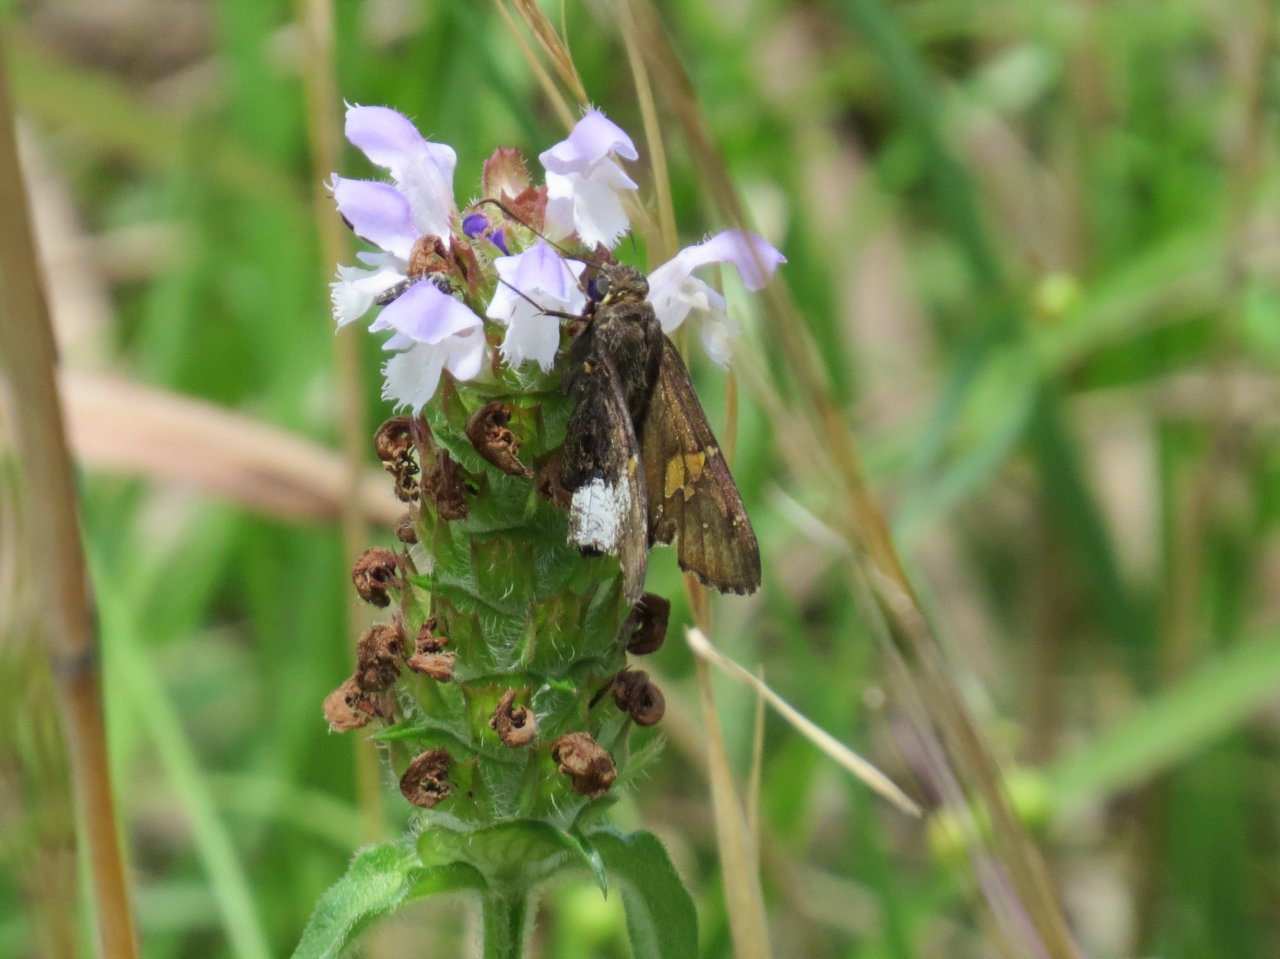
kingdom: Animalia
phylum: Arthropoda
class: Insecta
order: Lepidoptera
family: Hesperiidae
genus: Achalarus
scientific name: Achalarus lyciades
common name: Hoary Edge
